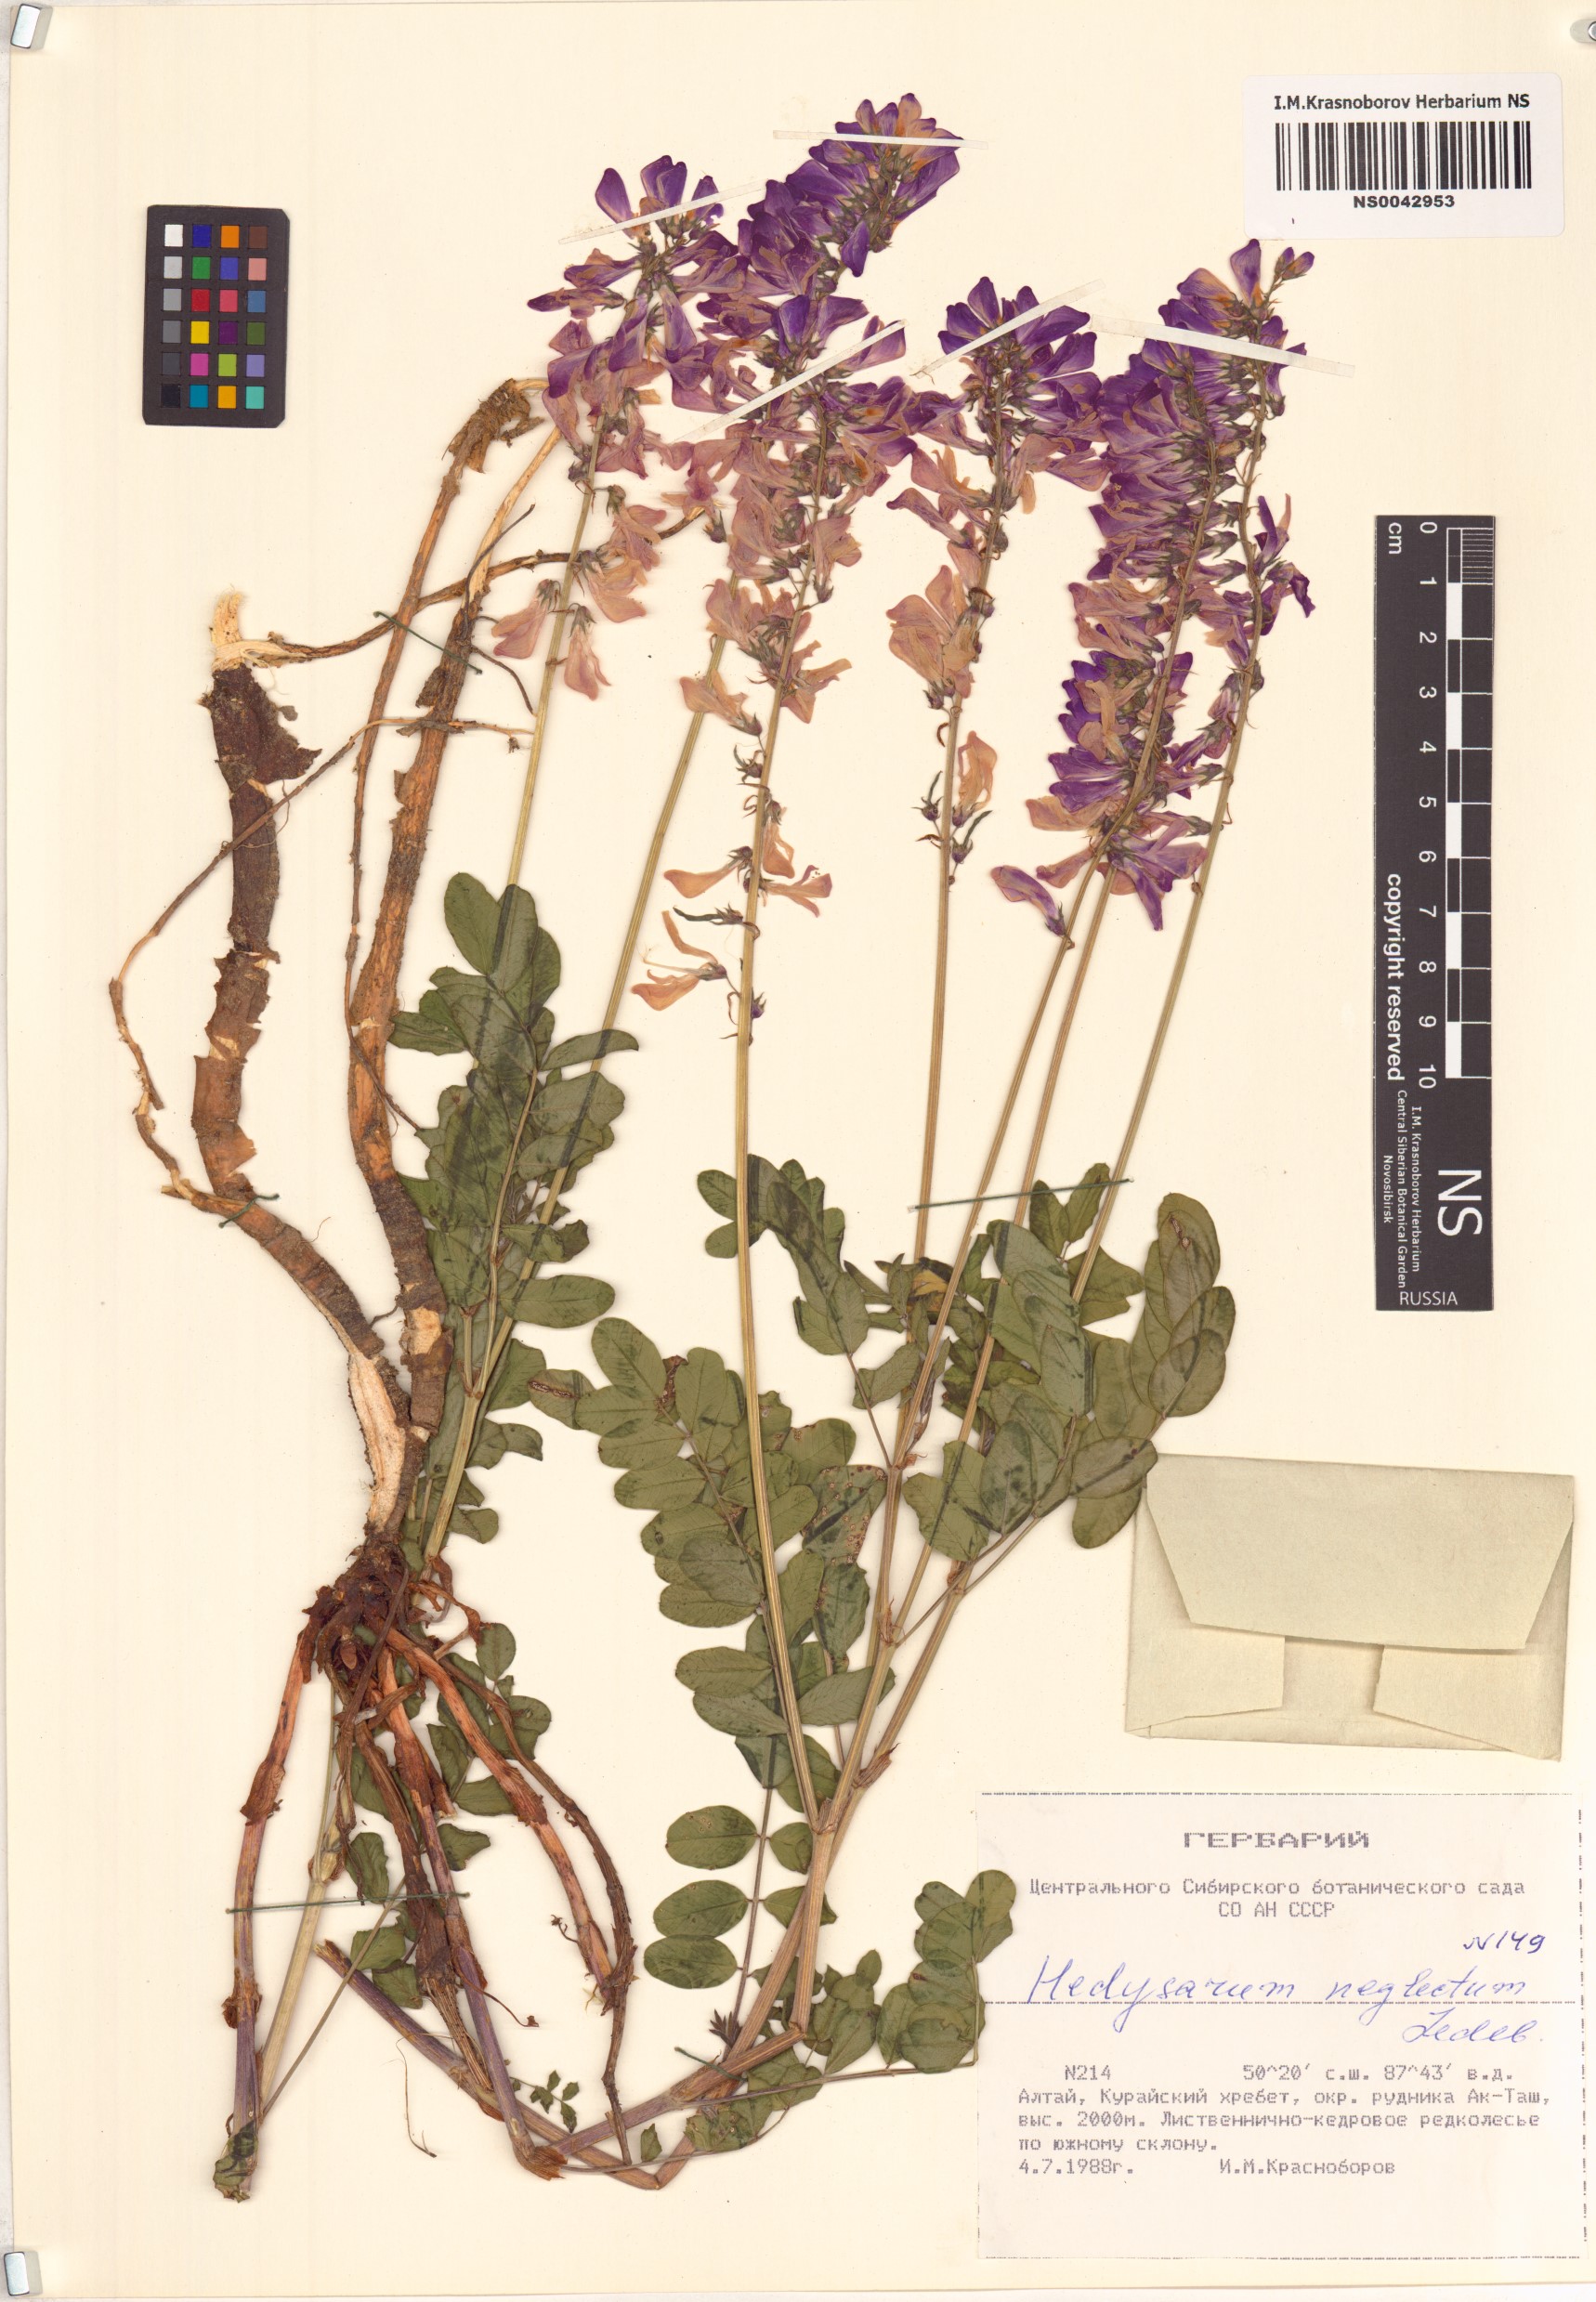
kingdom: Plantae
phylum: Tracheophyta
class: Magnoliopsida
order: Fabales
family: Fabaceae
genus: Hedysarum
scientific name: Hedysarum neglectum
